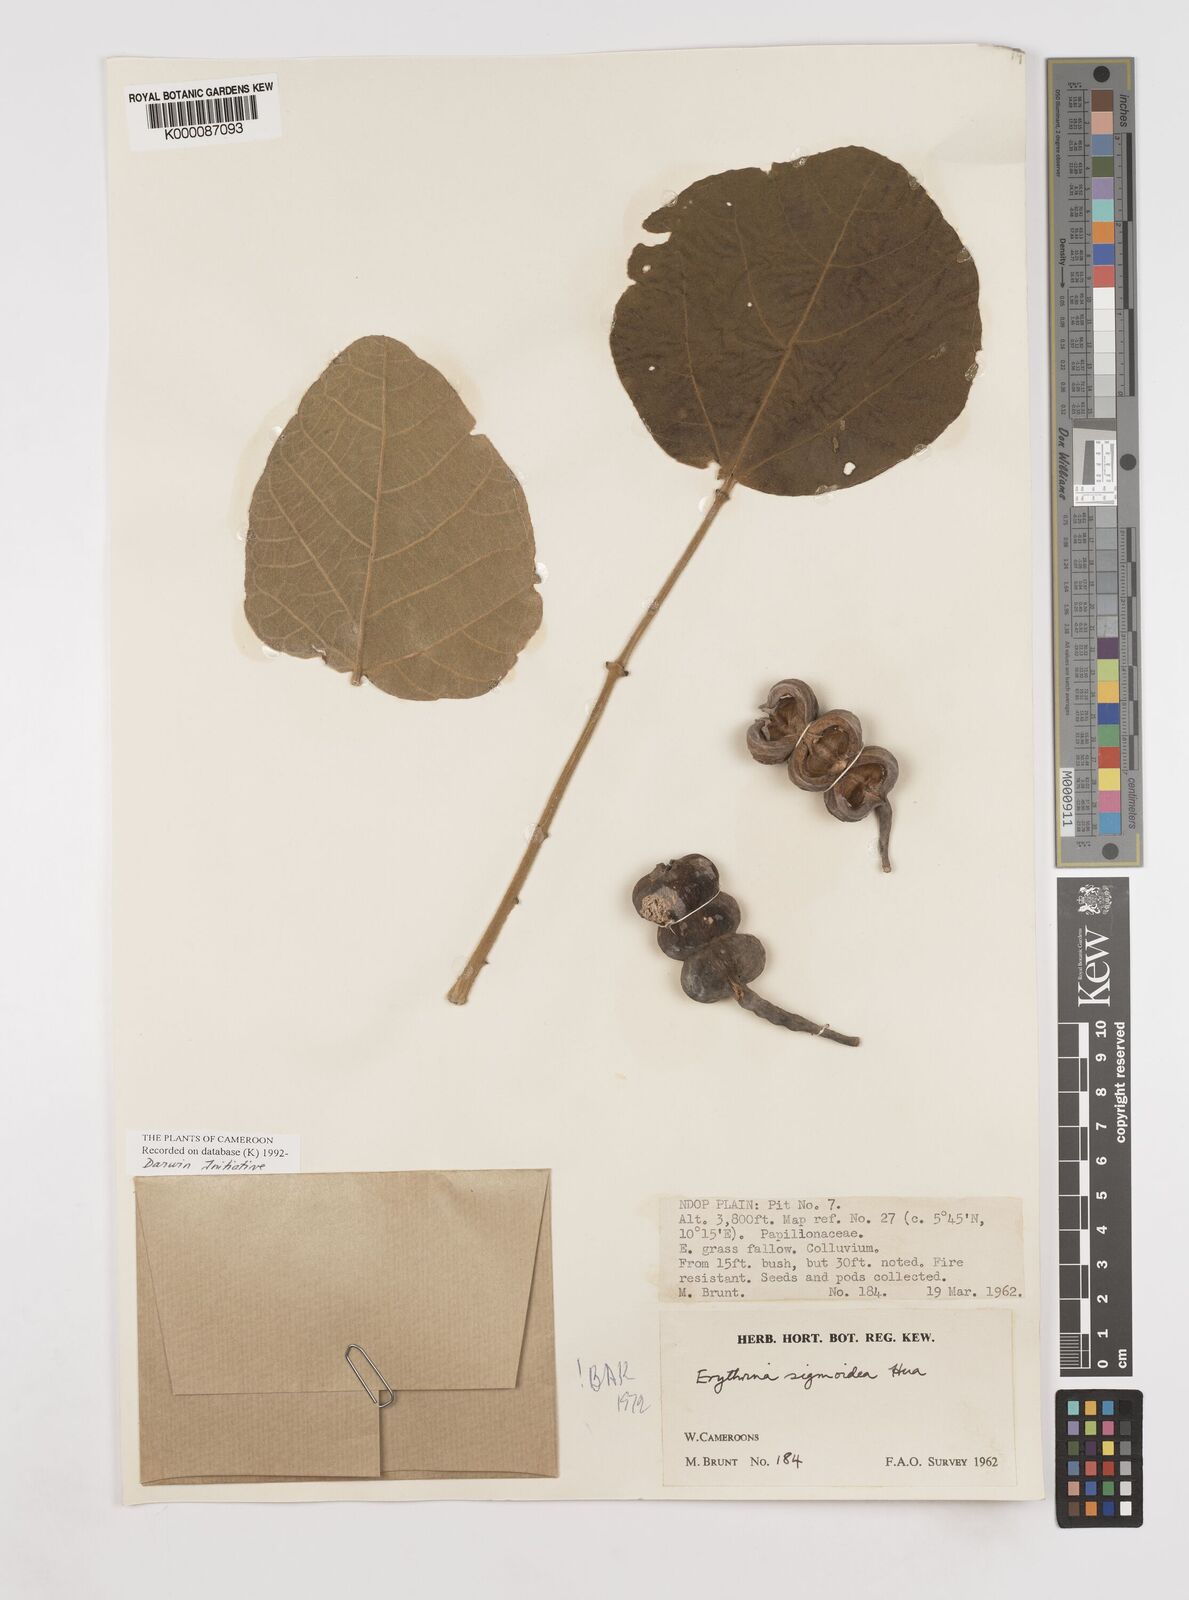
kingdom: Plantae
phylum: Tracheophyta
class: Magnoliopsida
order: Fabales
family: Fabaceae
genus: Erythrina
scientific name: Erythrina sigmoidea
